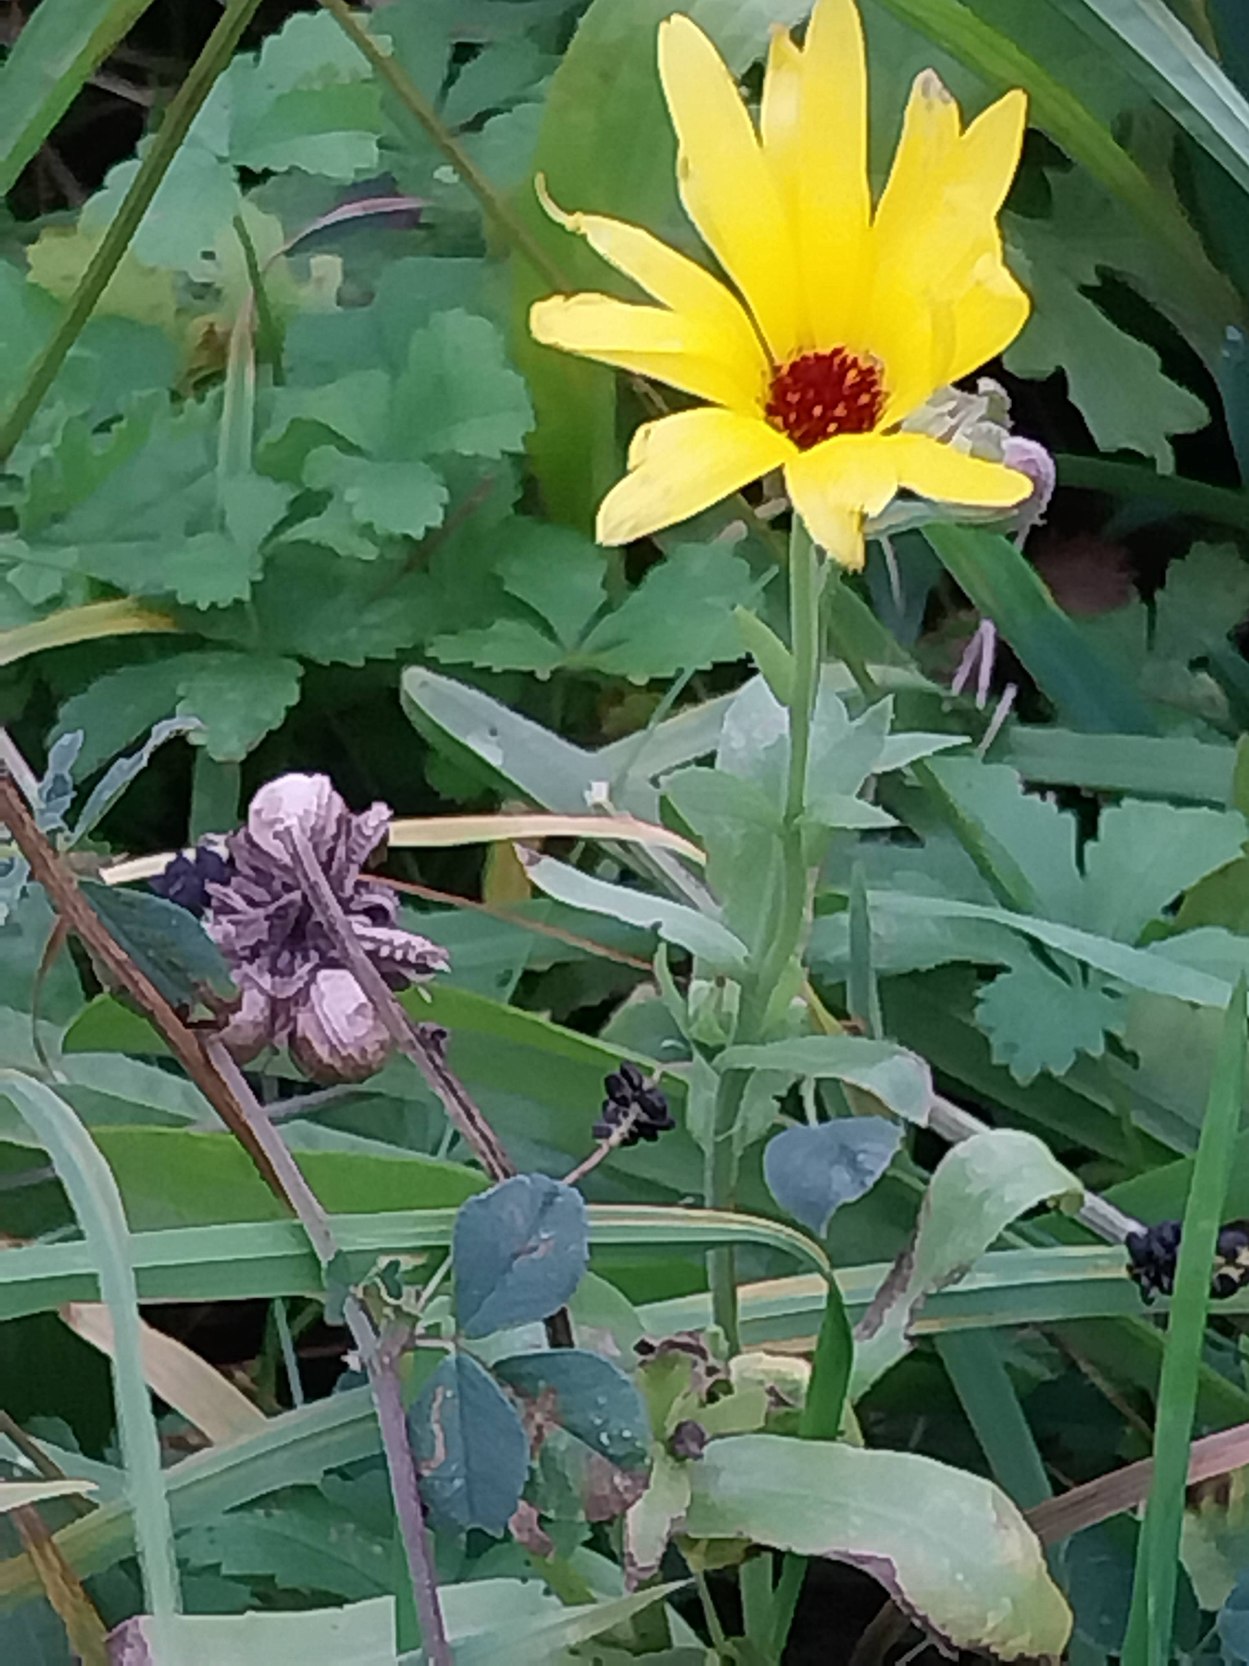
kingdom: Plantae
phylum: Tracheophyta
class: Magnoliopsida
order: Asterales
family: Asteraceae
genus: Calendula
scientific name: Calendula officinalis
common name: Have-morgenfrue
